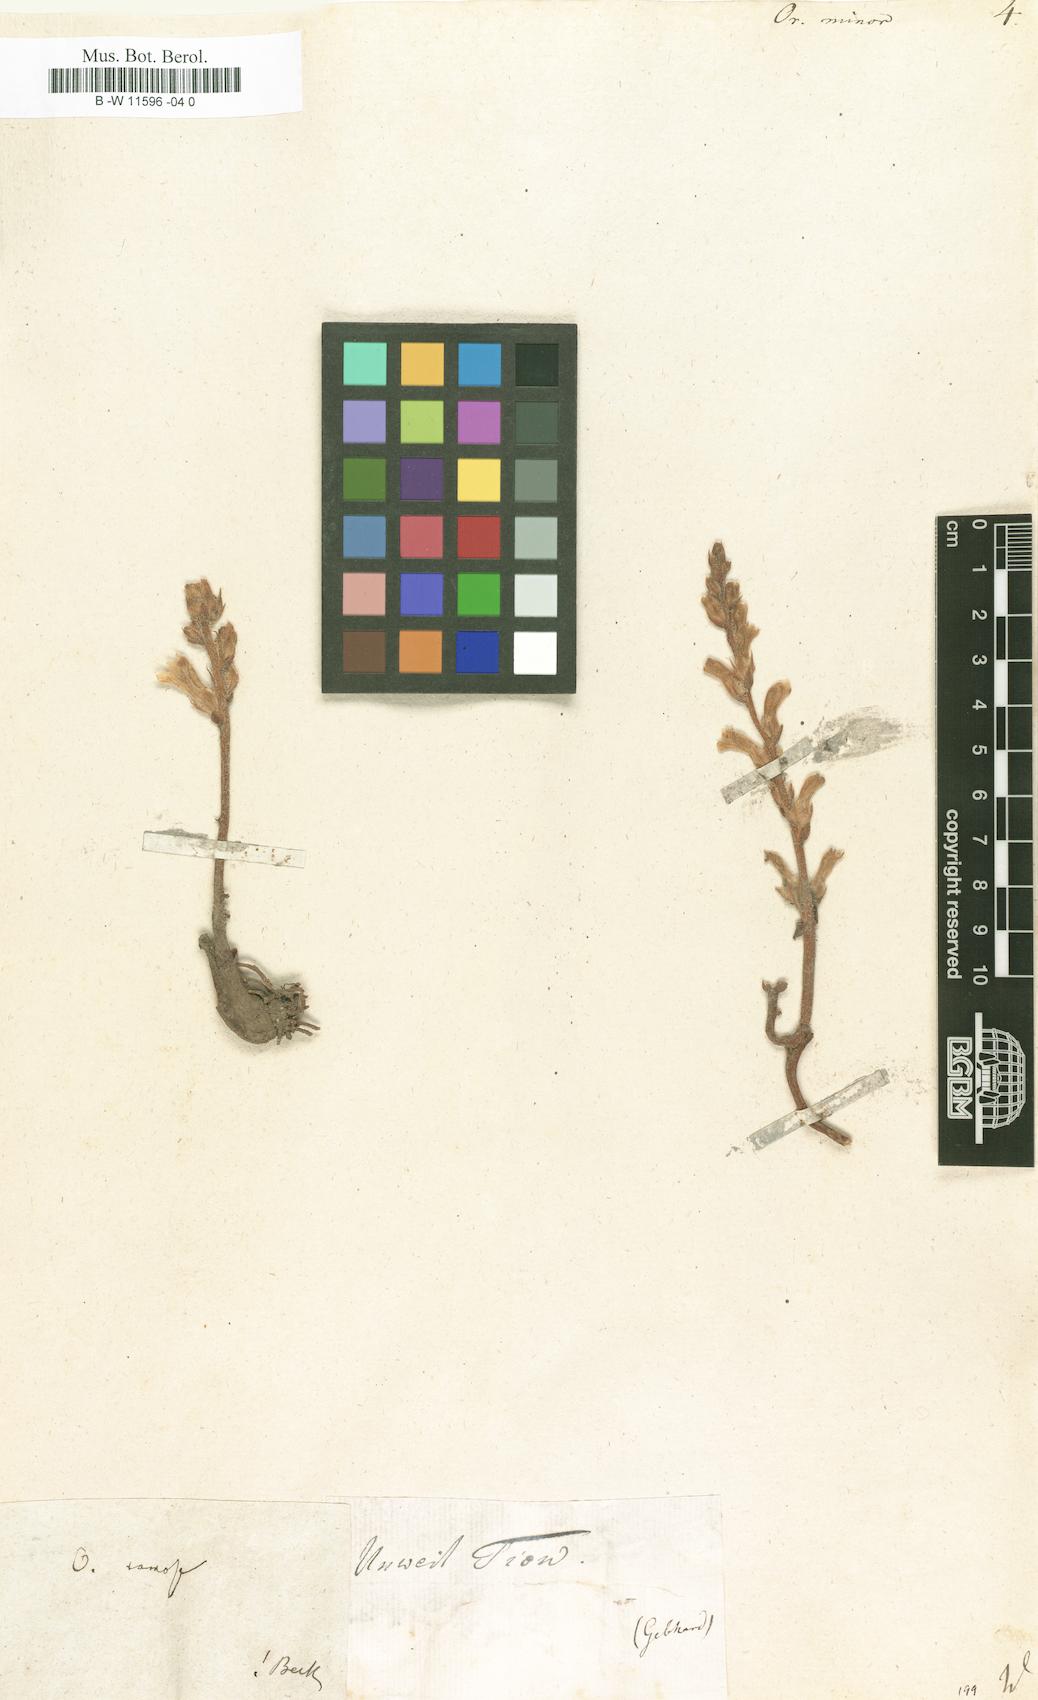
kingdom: Plantae
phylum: Tracheophyta
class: Magnoliopsida
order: Lamiales
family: Orobanchaceae
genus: Orobanche
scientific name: Orobanche minor
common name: Common broomrape
